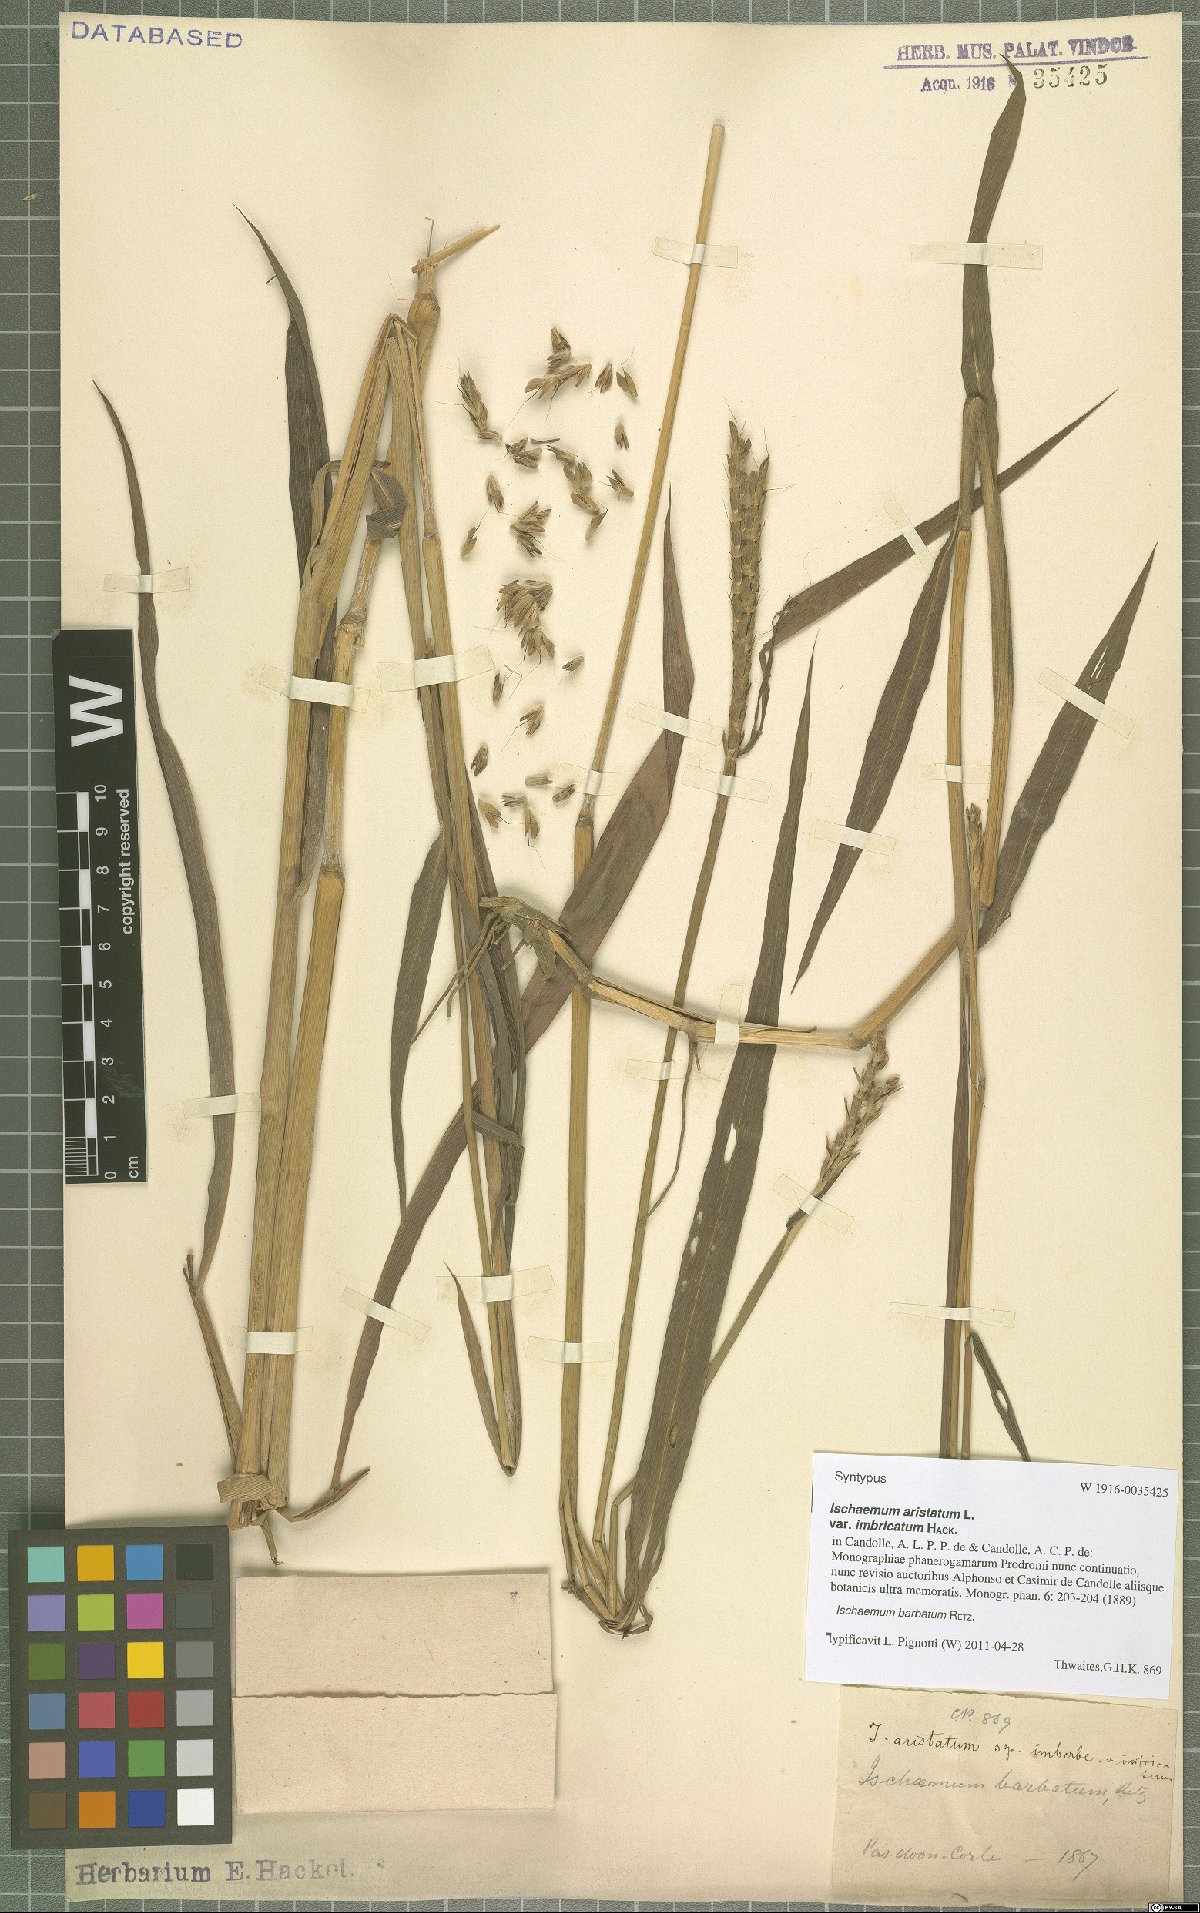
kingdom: Plantae
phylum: Tracheophyta
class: Liliopsida
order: Poales
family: Poaceae
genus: Ischaemum
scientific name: Ischaemum barbatum
